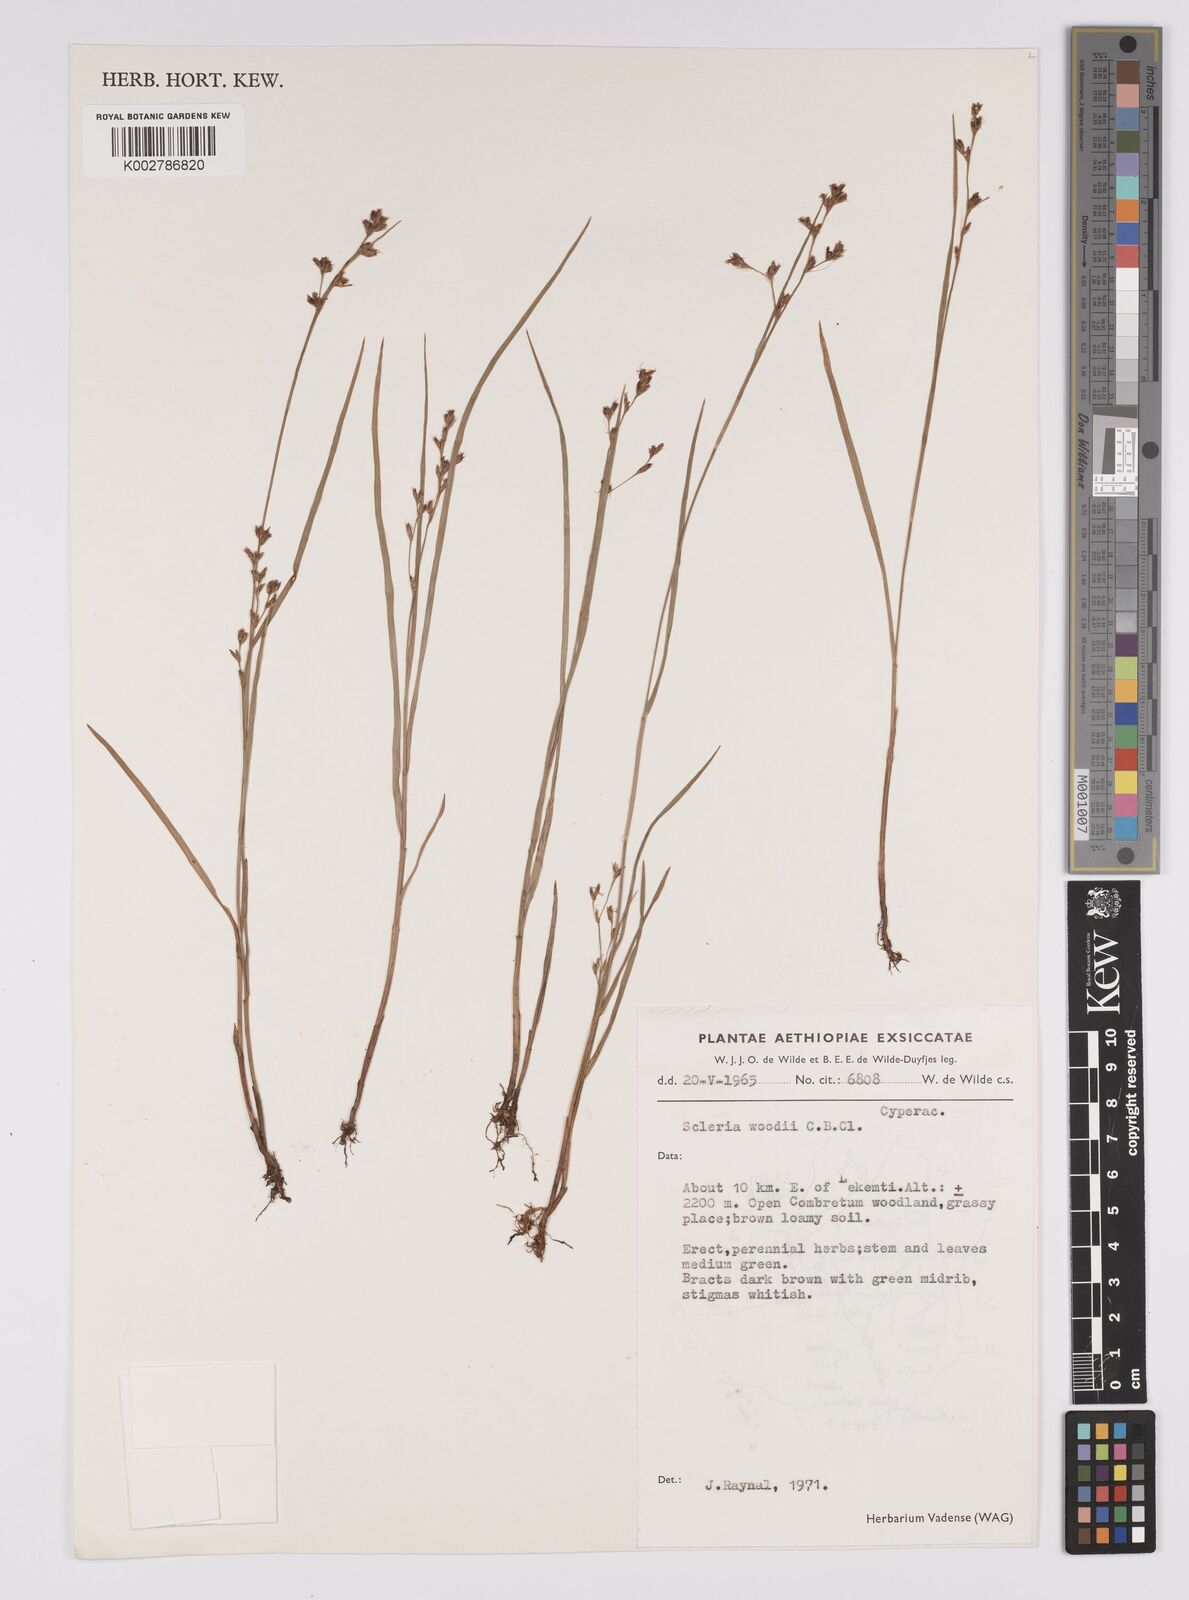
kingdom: Plantae
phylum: Tracheophyta
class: Liliopsida
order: Poales
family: Cyperaceae
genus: Scleria
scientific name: Scleria woodii
